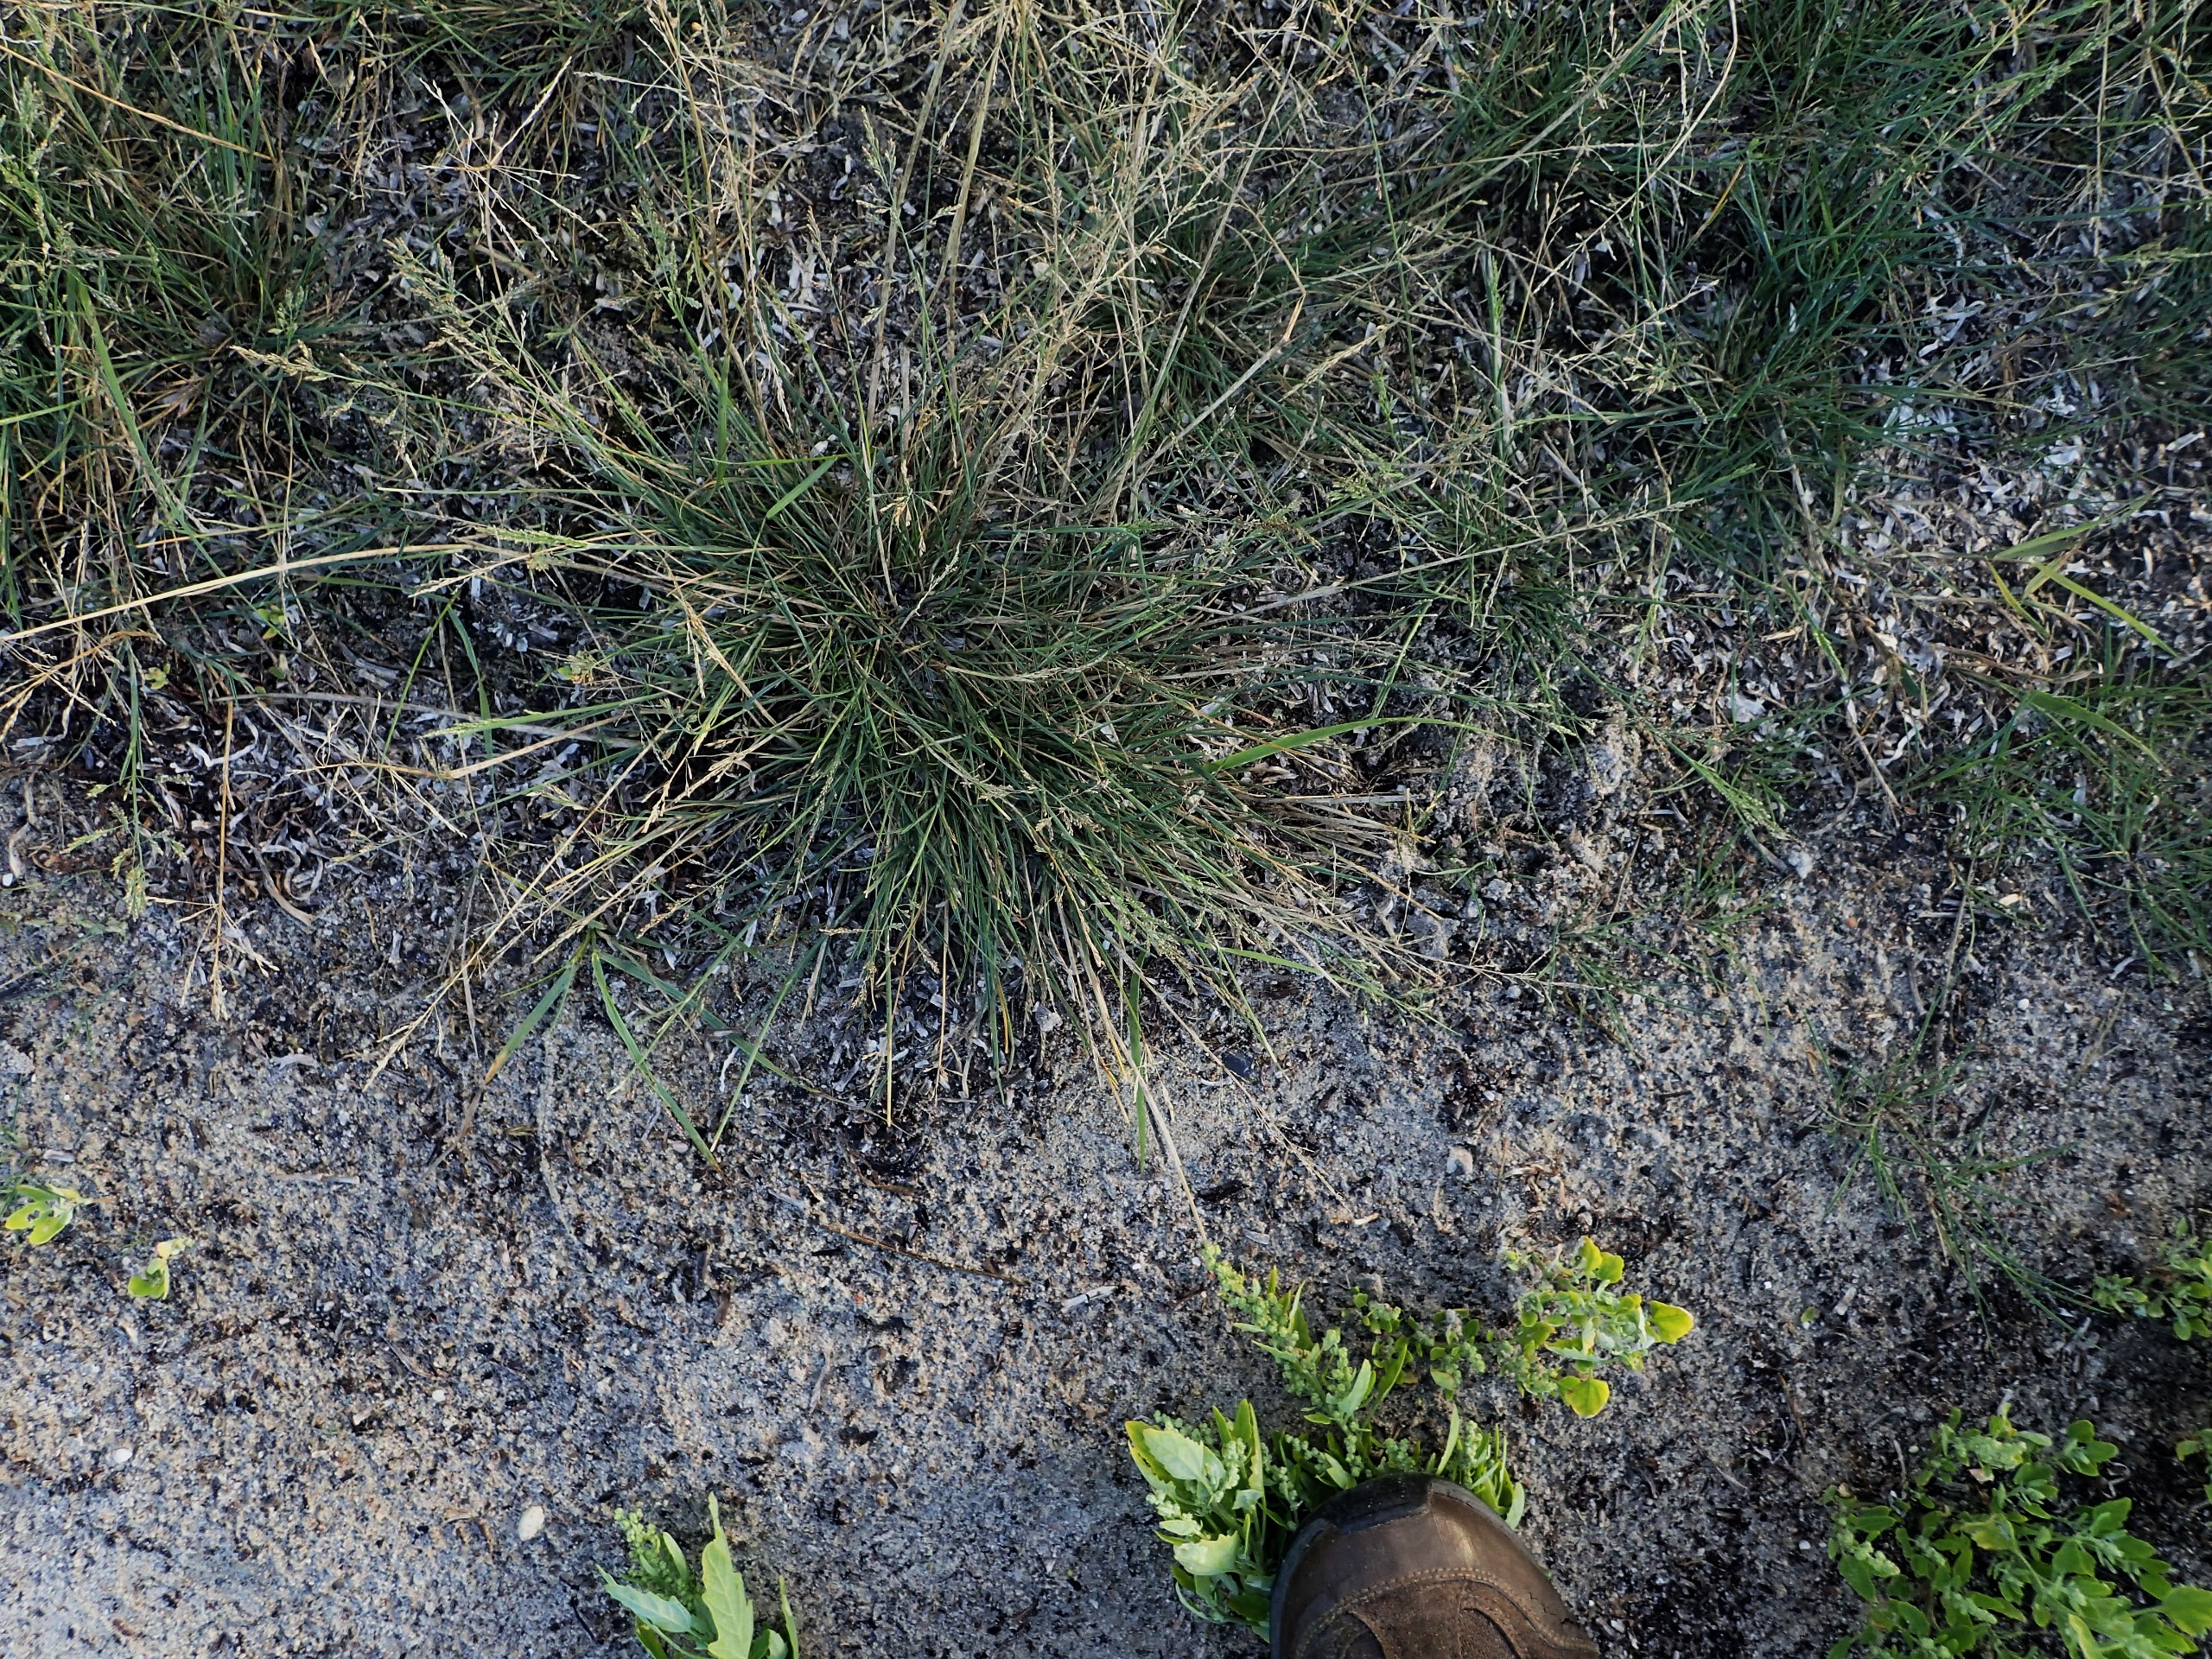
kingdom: Plantae
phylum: Tracheophyta
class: Liliopsida
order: Poales
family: Poaceae
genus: Puccinellia
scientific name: Puccinellia maritima
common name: Strand-annelgræs
